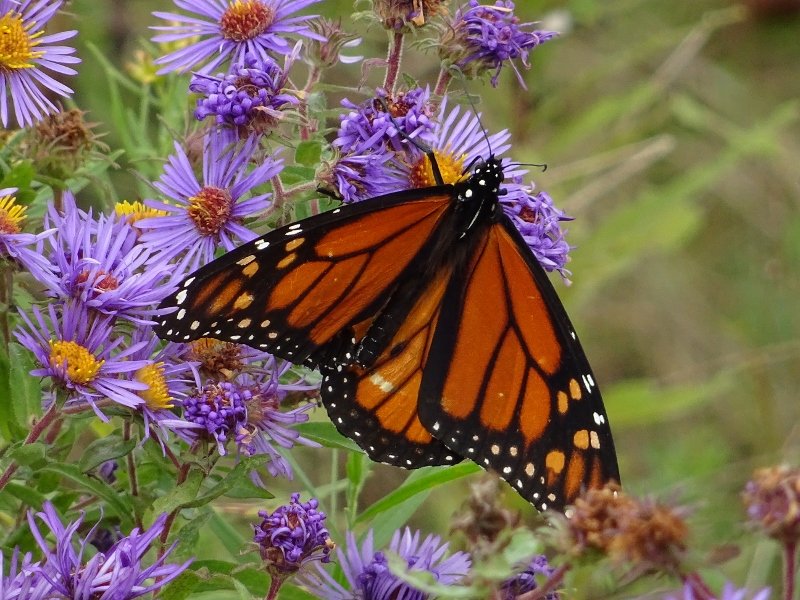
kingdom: Animalia
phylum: Arthropoda
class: Insecta
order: Lepidoptera
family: Nymphalidae
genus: Danaus
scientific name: Danaus plexippus
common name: Monarch
